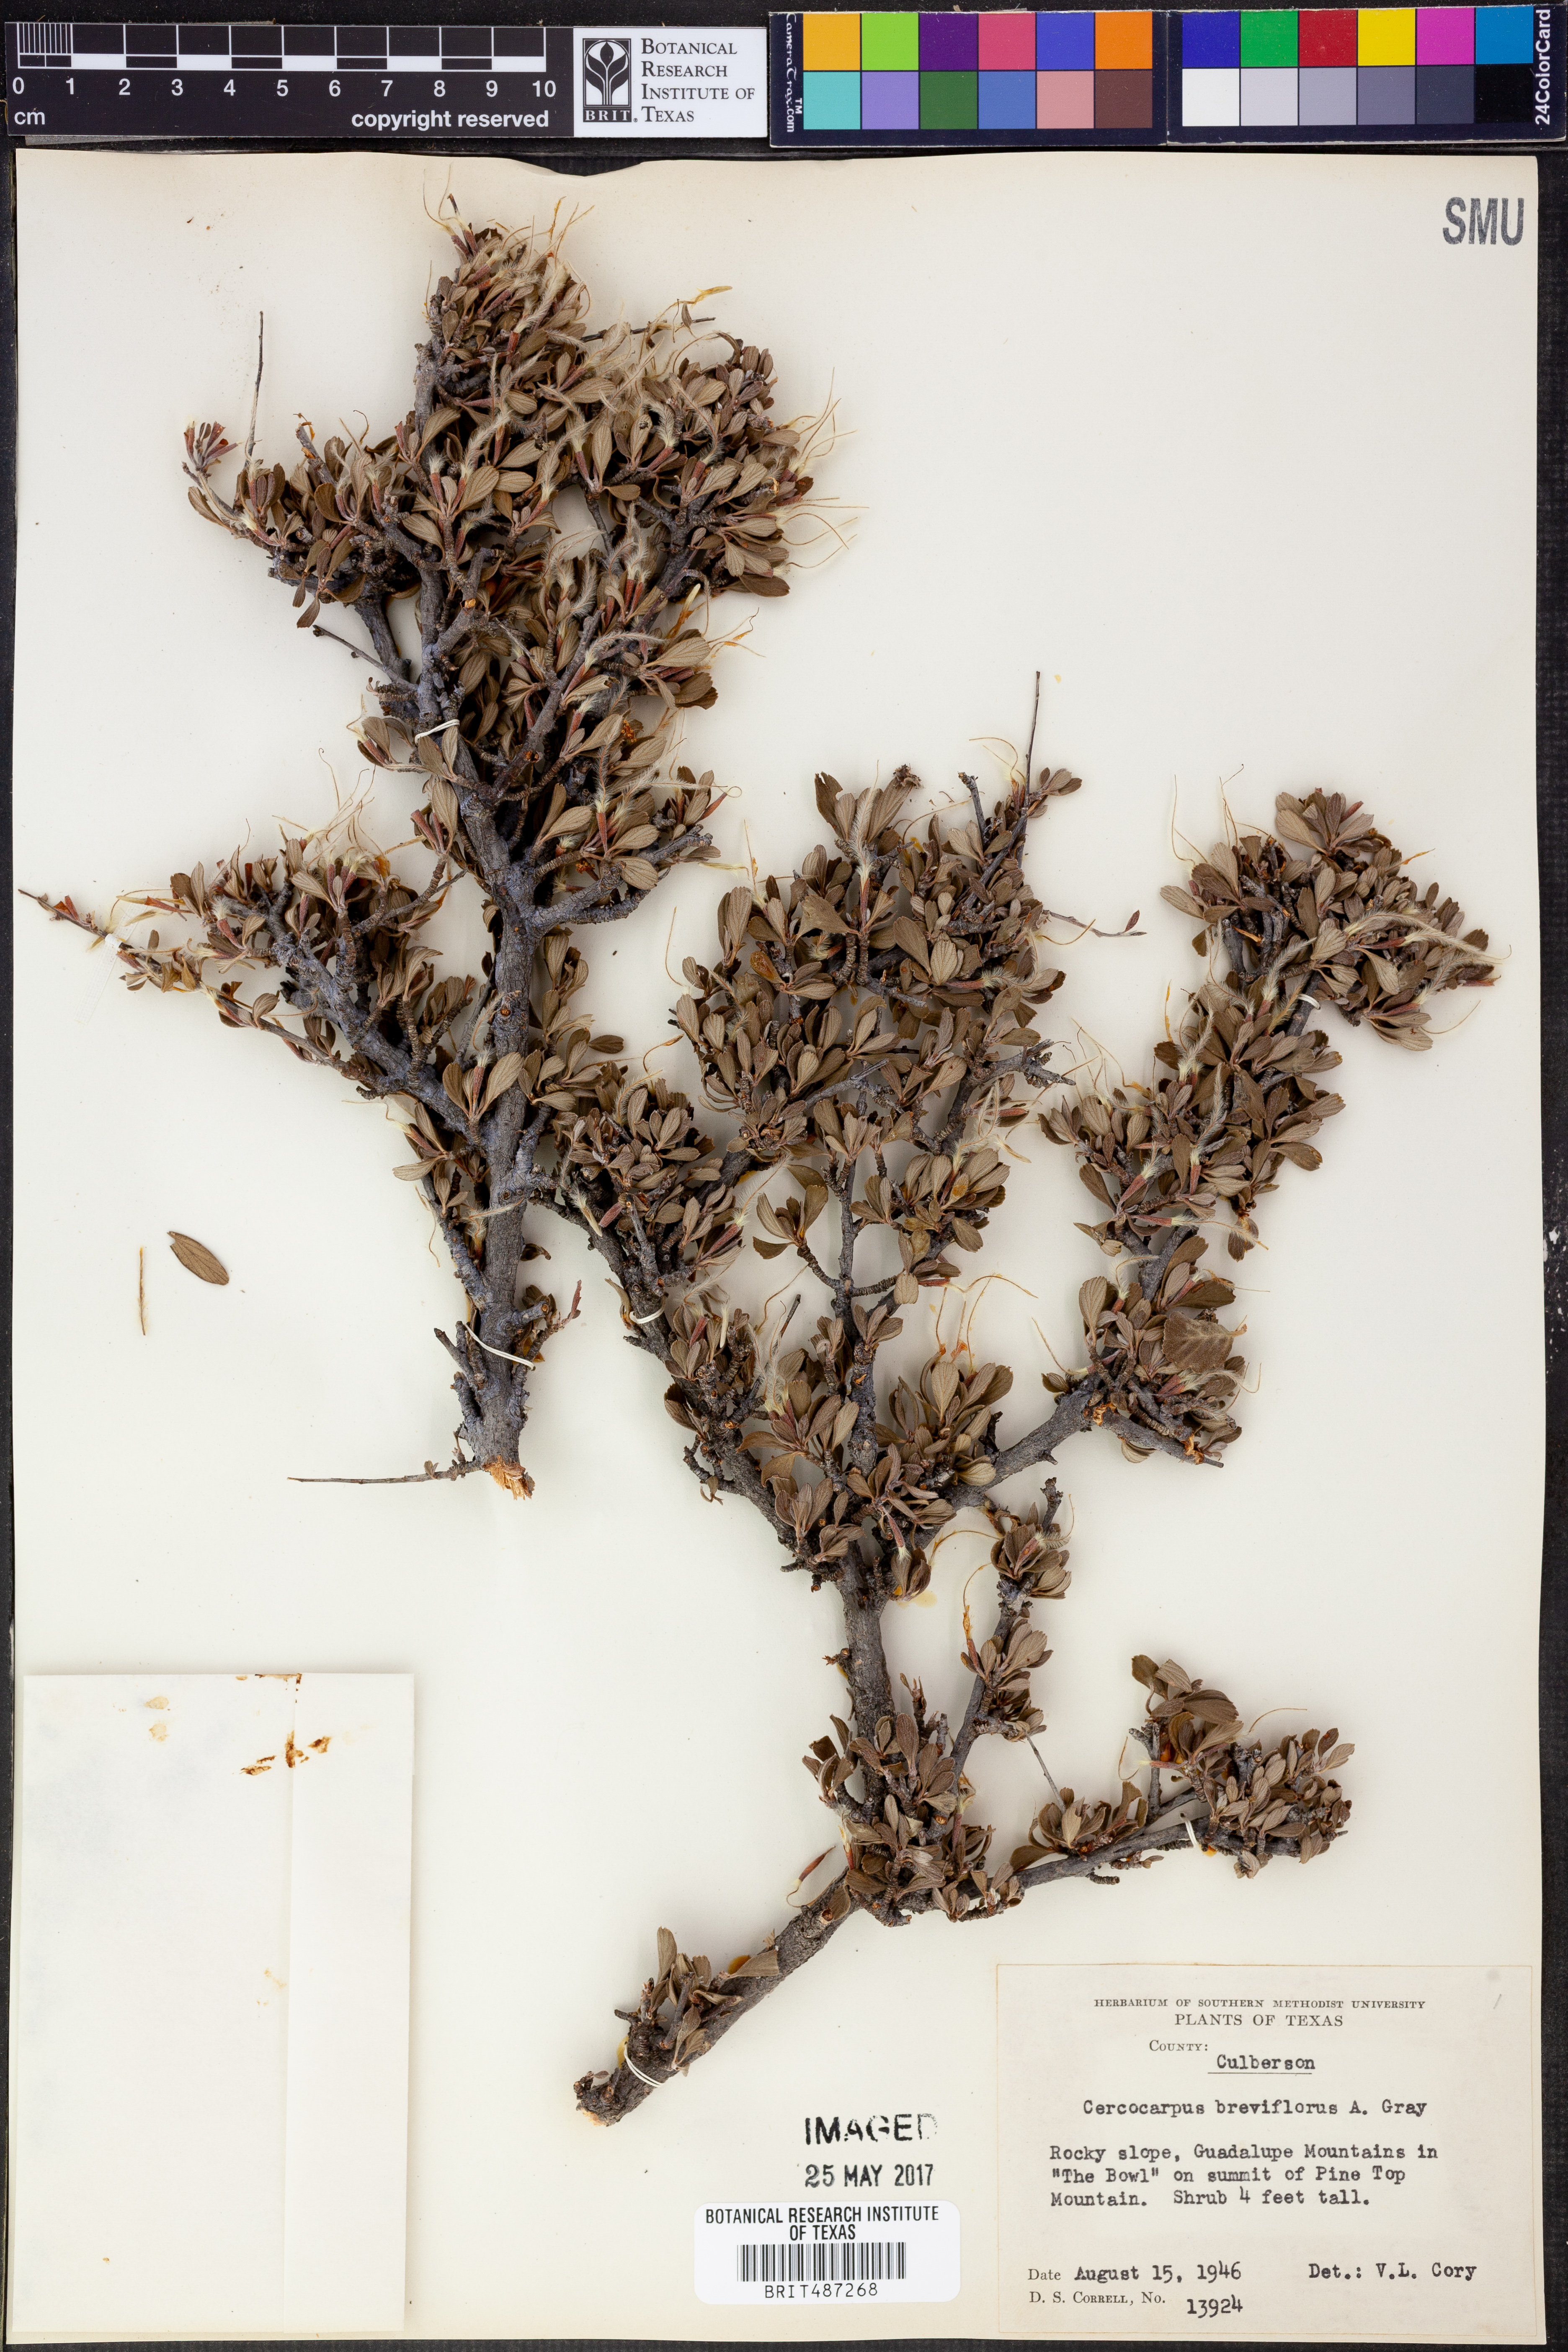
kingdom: Plantae
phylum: Tracheophyta
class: Magnoliopsida
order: Rosales
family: Rosaceae
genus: Cercocarpus
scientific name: Cercocarpus breviflorus
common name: Wright's mountain-mahogany
